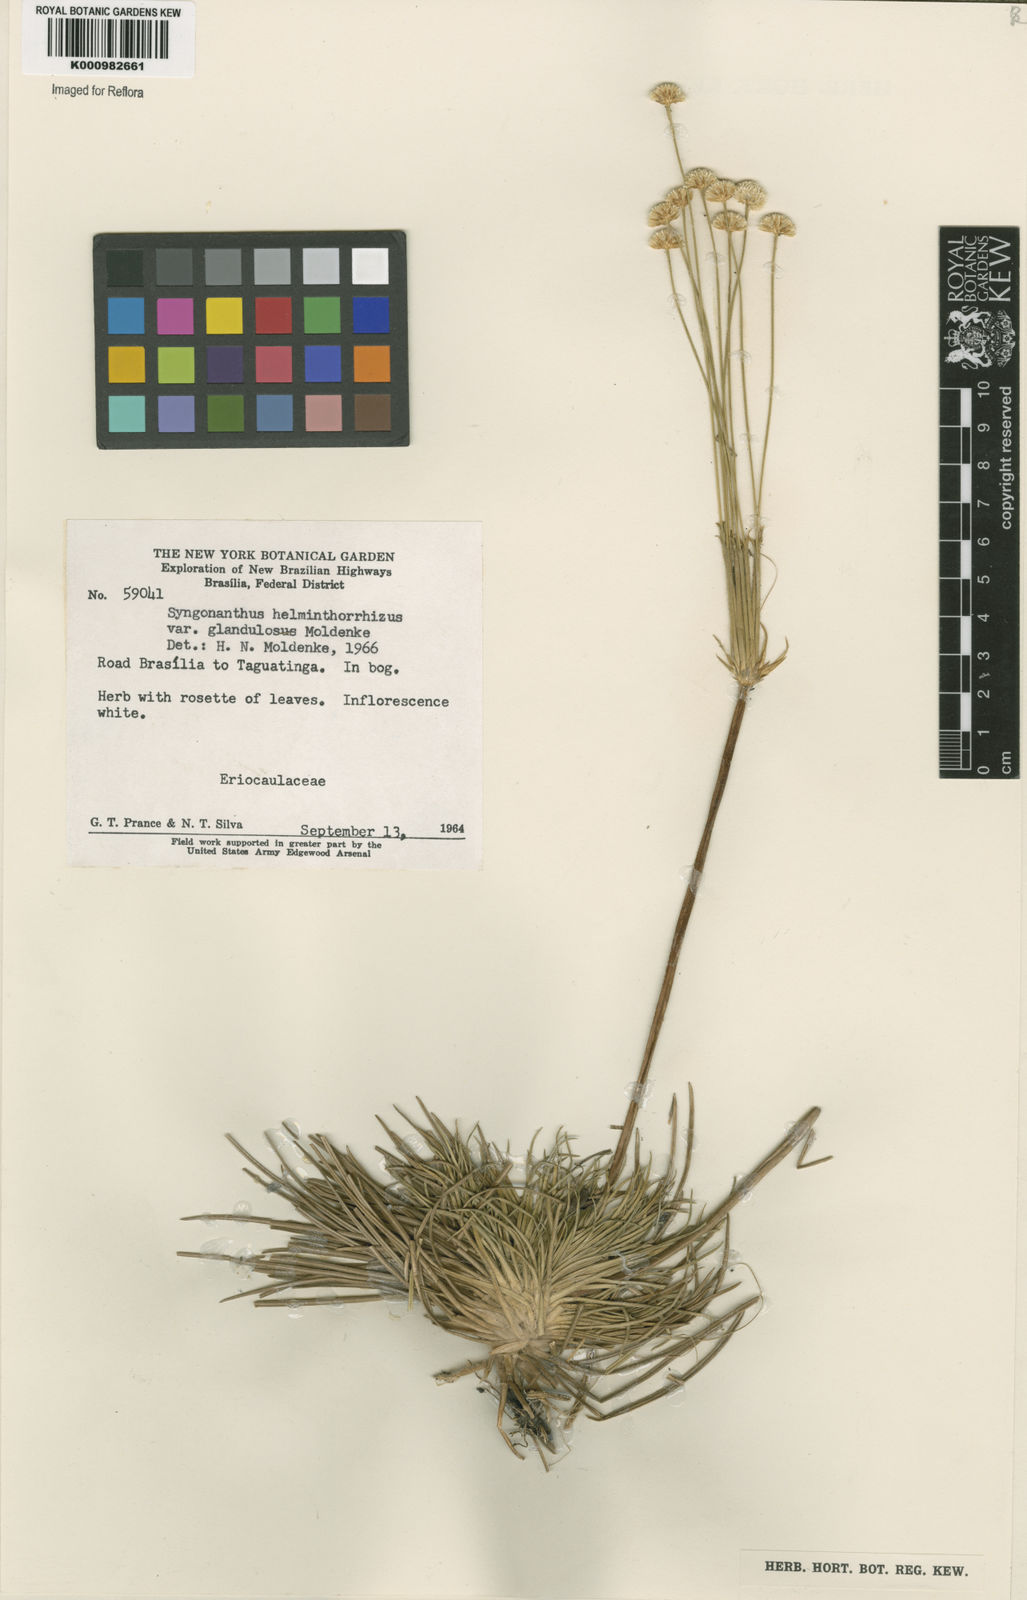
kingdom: Plantae
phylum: Tracheophyta
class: Liliopsida
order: Poales
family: Eriocaulaceae
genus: Syngonanthus
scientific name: Syngonanthus
